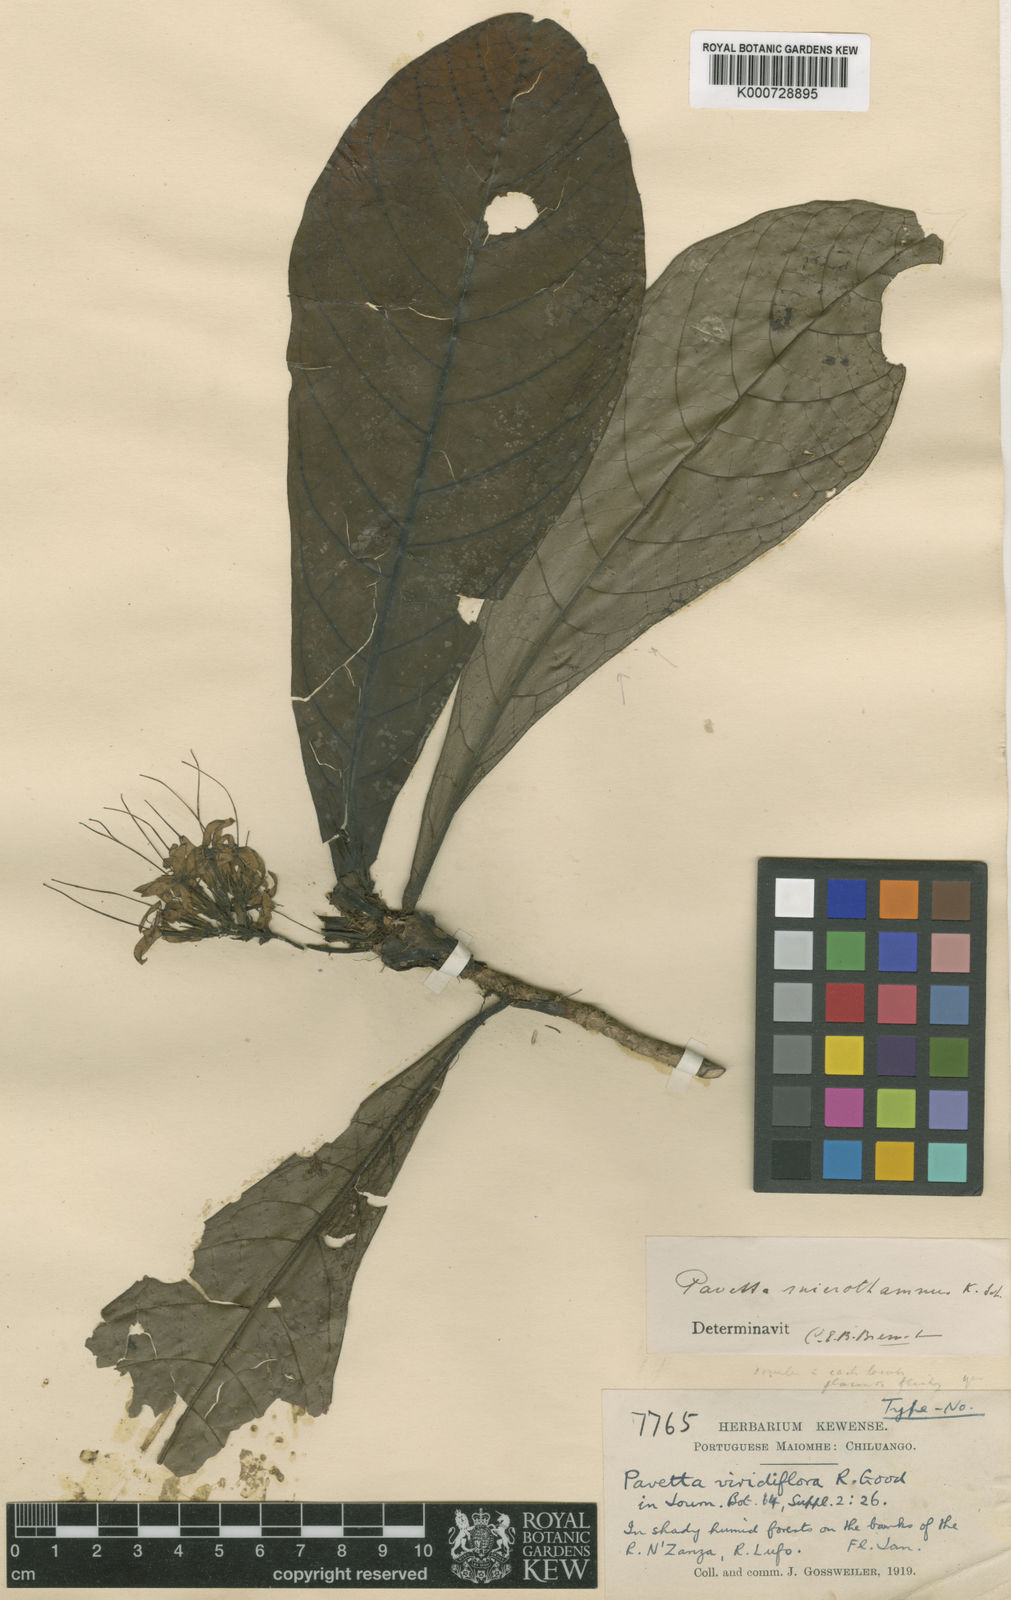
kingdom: Plantae
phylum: Tracheophyta
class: Magnoliopsida
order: Gentianales
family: Rubiaceae
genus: Pavetta
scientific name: Pavetta microthamnus
